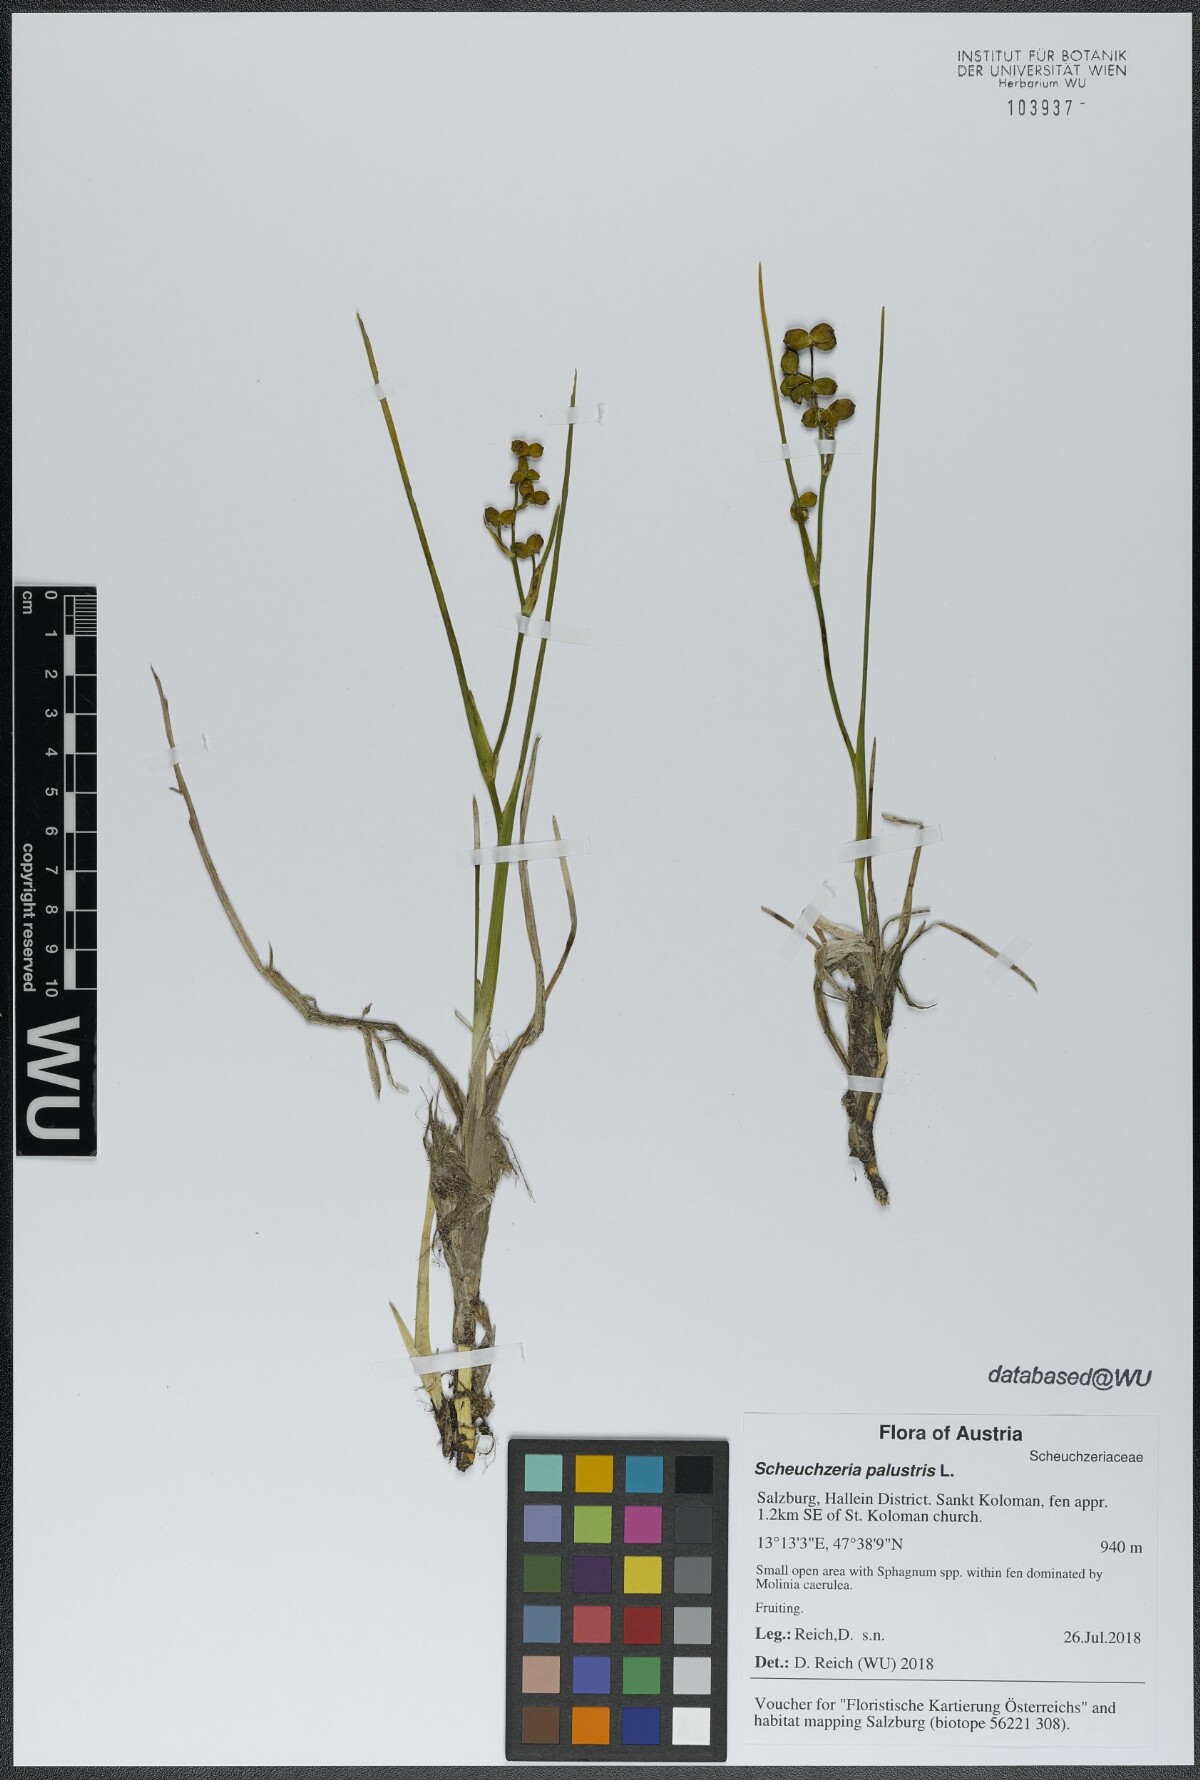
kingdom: Plantae
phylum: Tracheophyta
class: Liliopsida
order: Alismatales
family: Scheuchzeriaceae
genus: Scheuchzeria
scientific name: Scheuchzeria palustris
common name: Rannoch-rush
